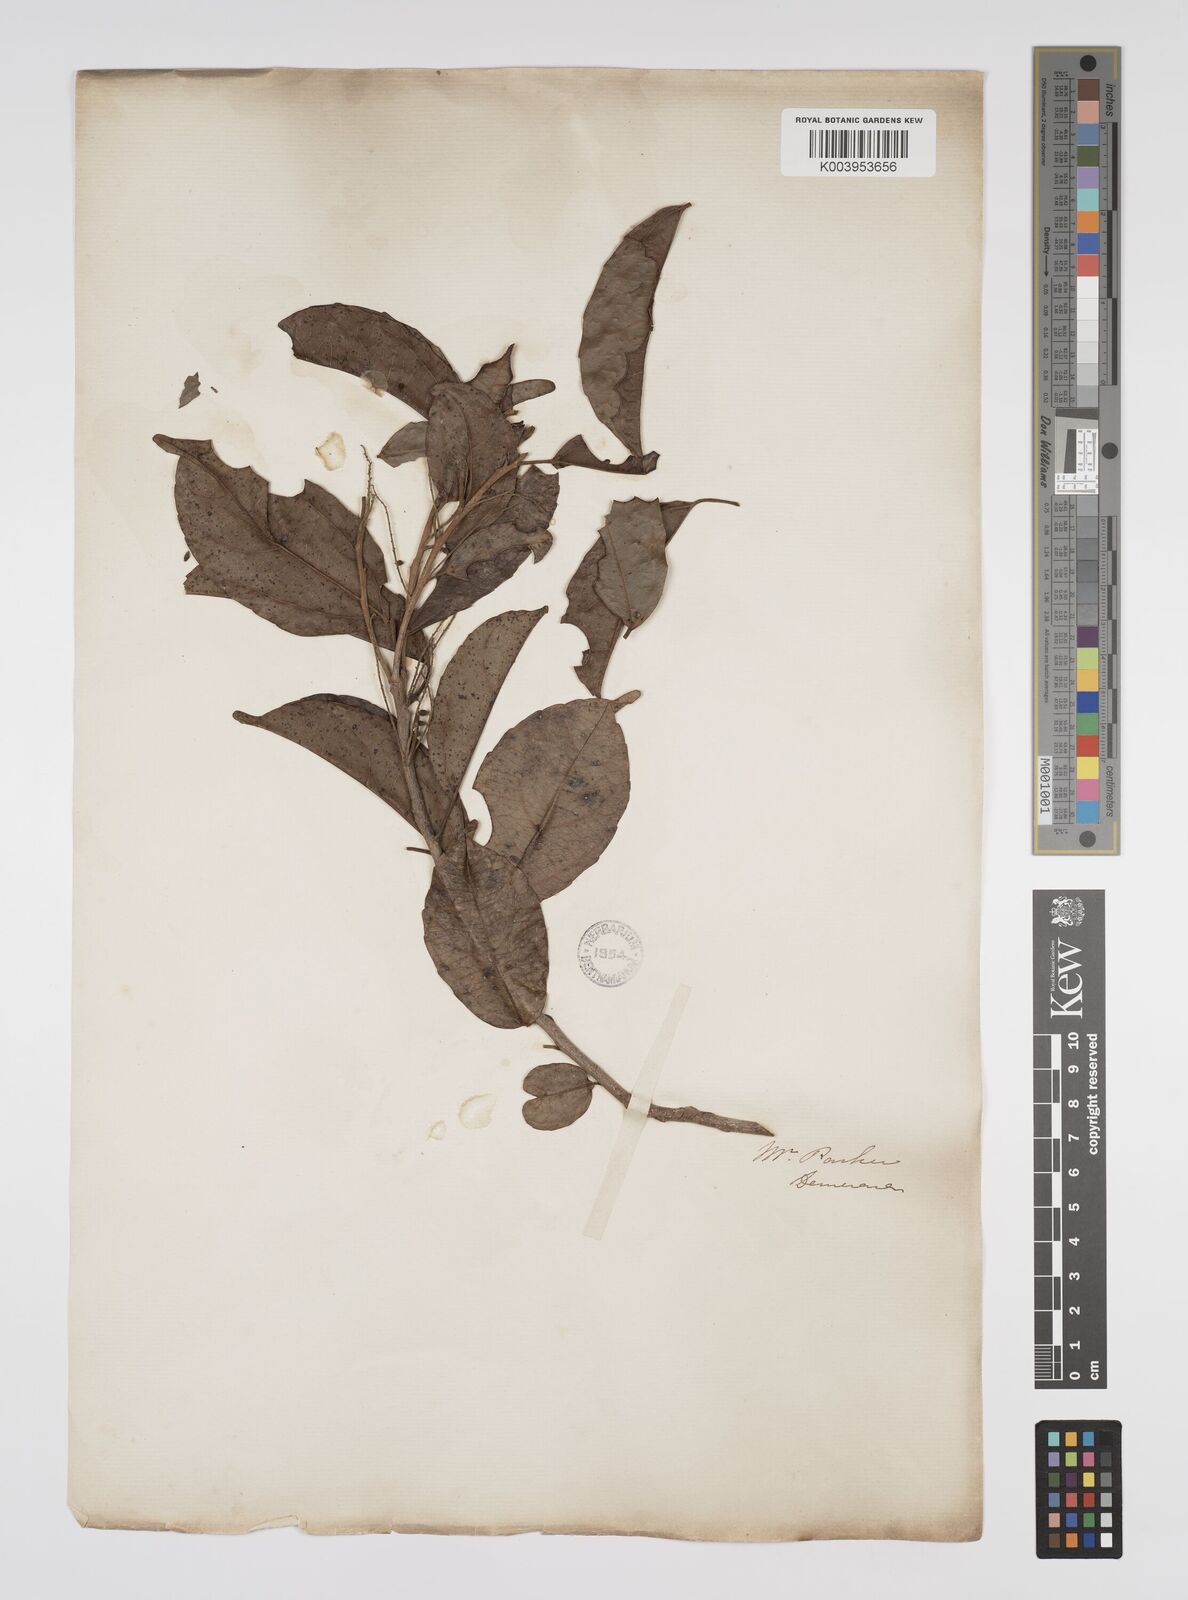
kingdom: Plantae
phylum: Tracheophyta
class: Magnoliopsida
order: Malpighiales
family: Euphorbiaceae
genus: Alchorneopsis
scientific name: Alchorneopsis floribunda
